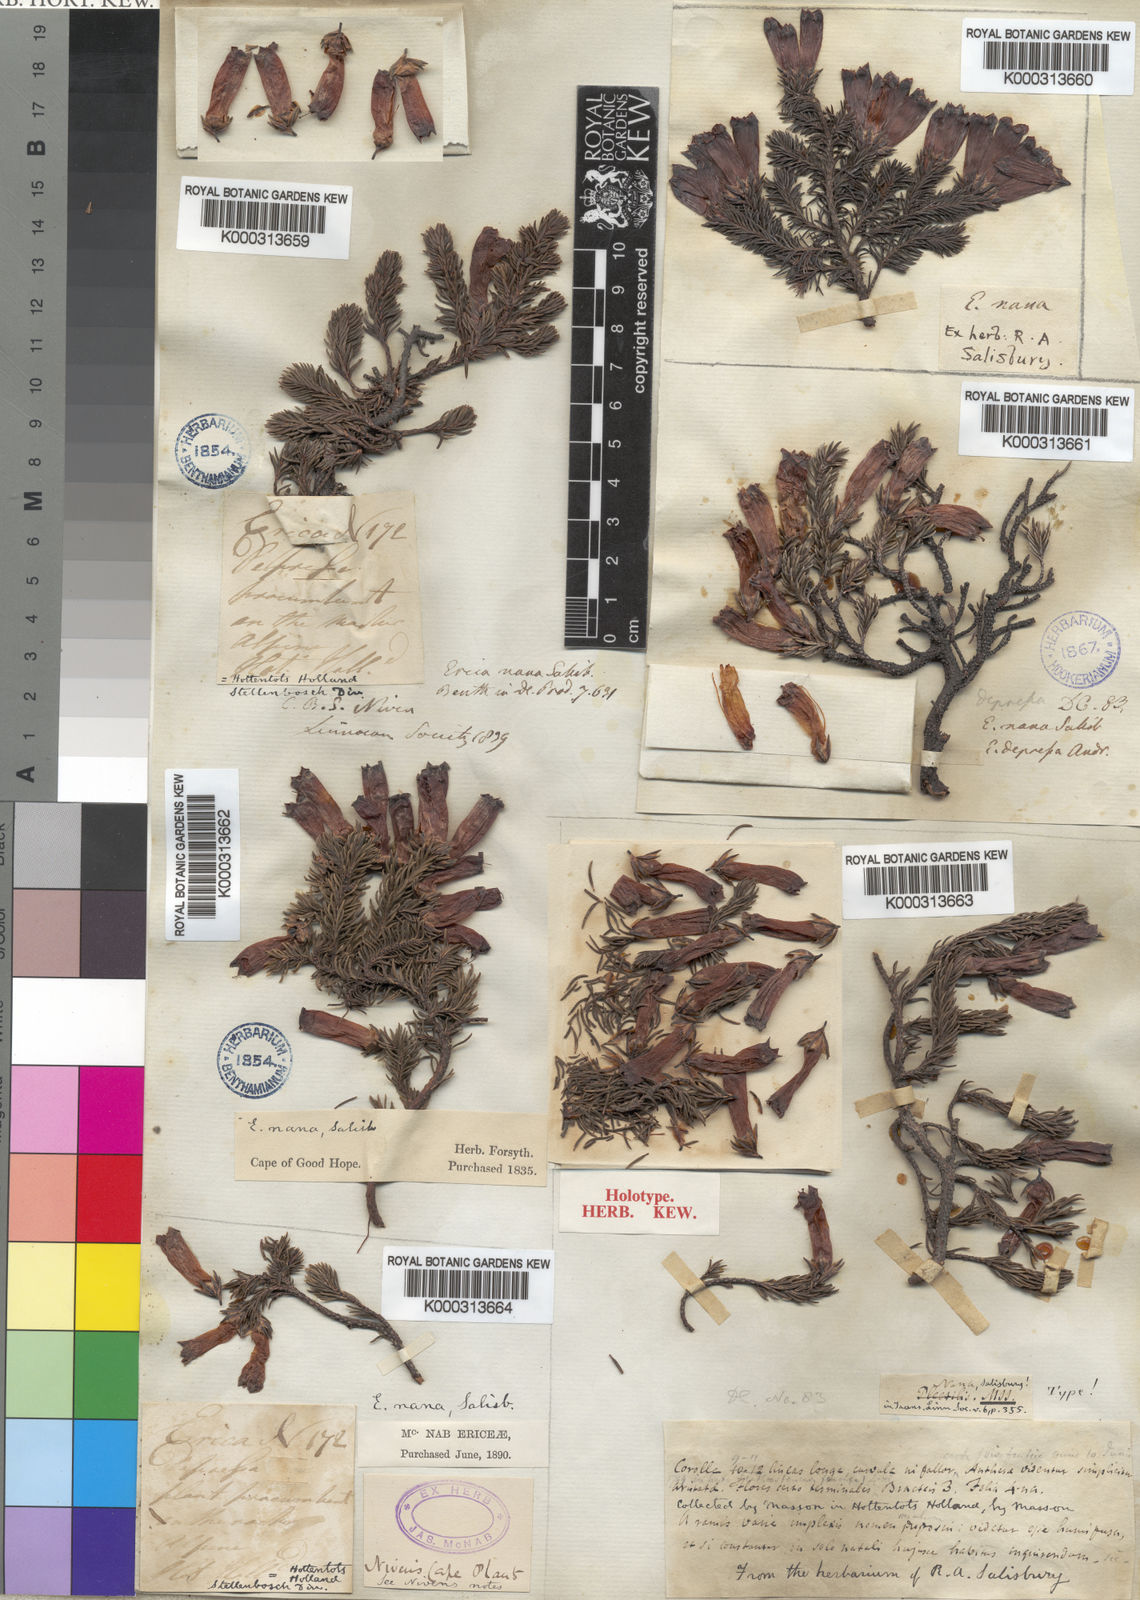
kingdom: Plantae
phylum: Tracheophyta
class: Magnoliopsida
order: Ericales
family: Ericaceae
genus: Erica
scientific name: Erica nana
